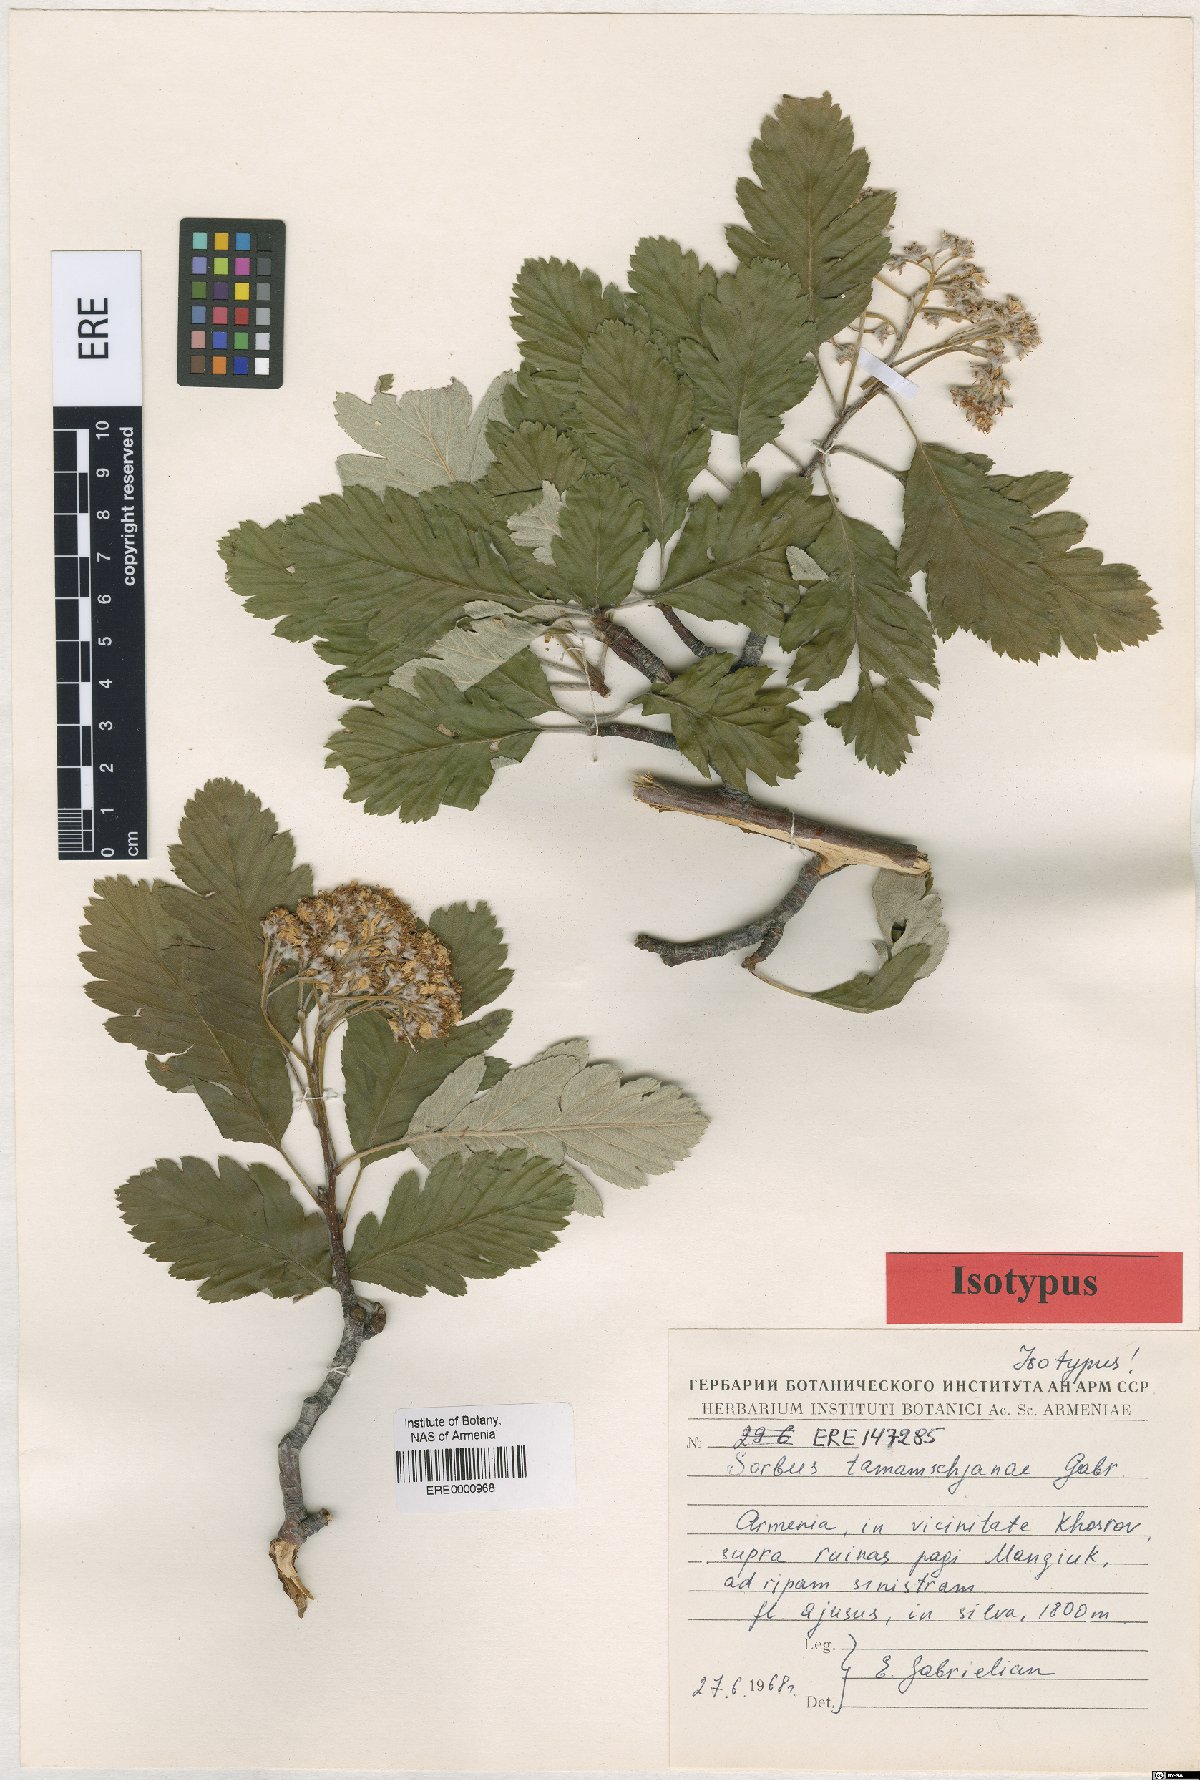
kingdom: Plantae
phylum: Tracheophyta
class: Magnoliopsida
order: Rosales
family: Rosaceae
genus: Hedlundia
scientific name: Hedlundia tamamschjanae
